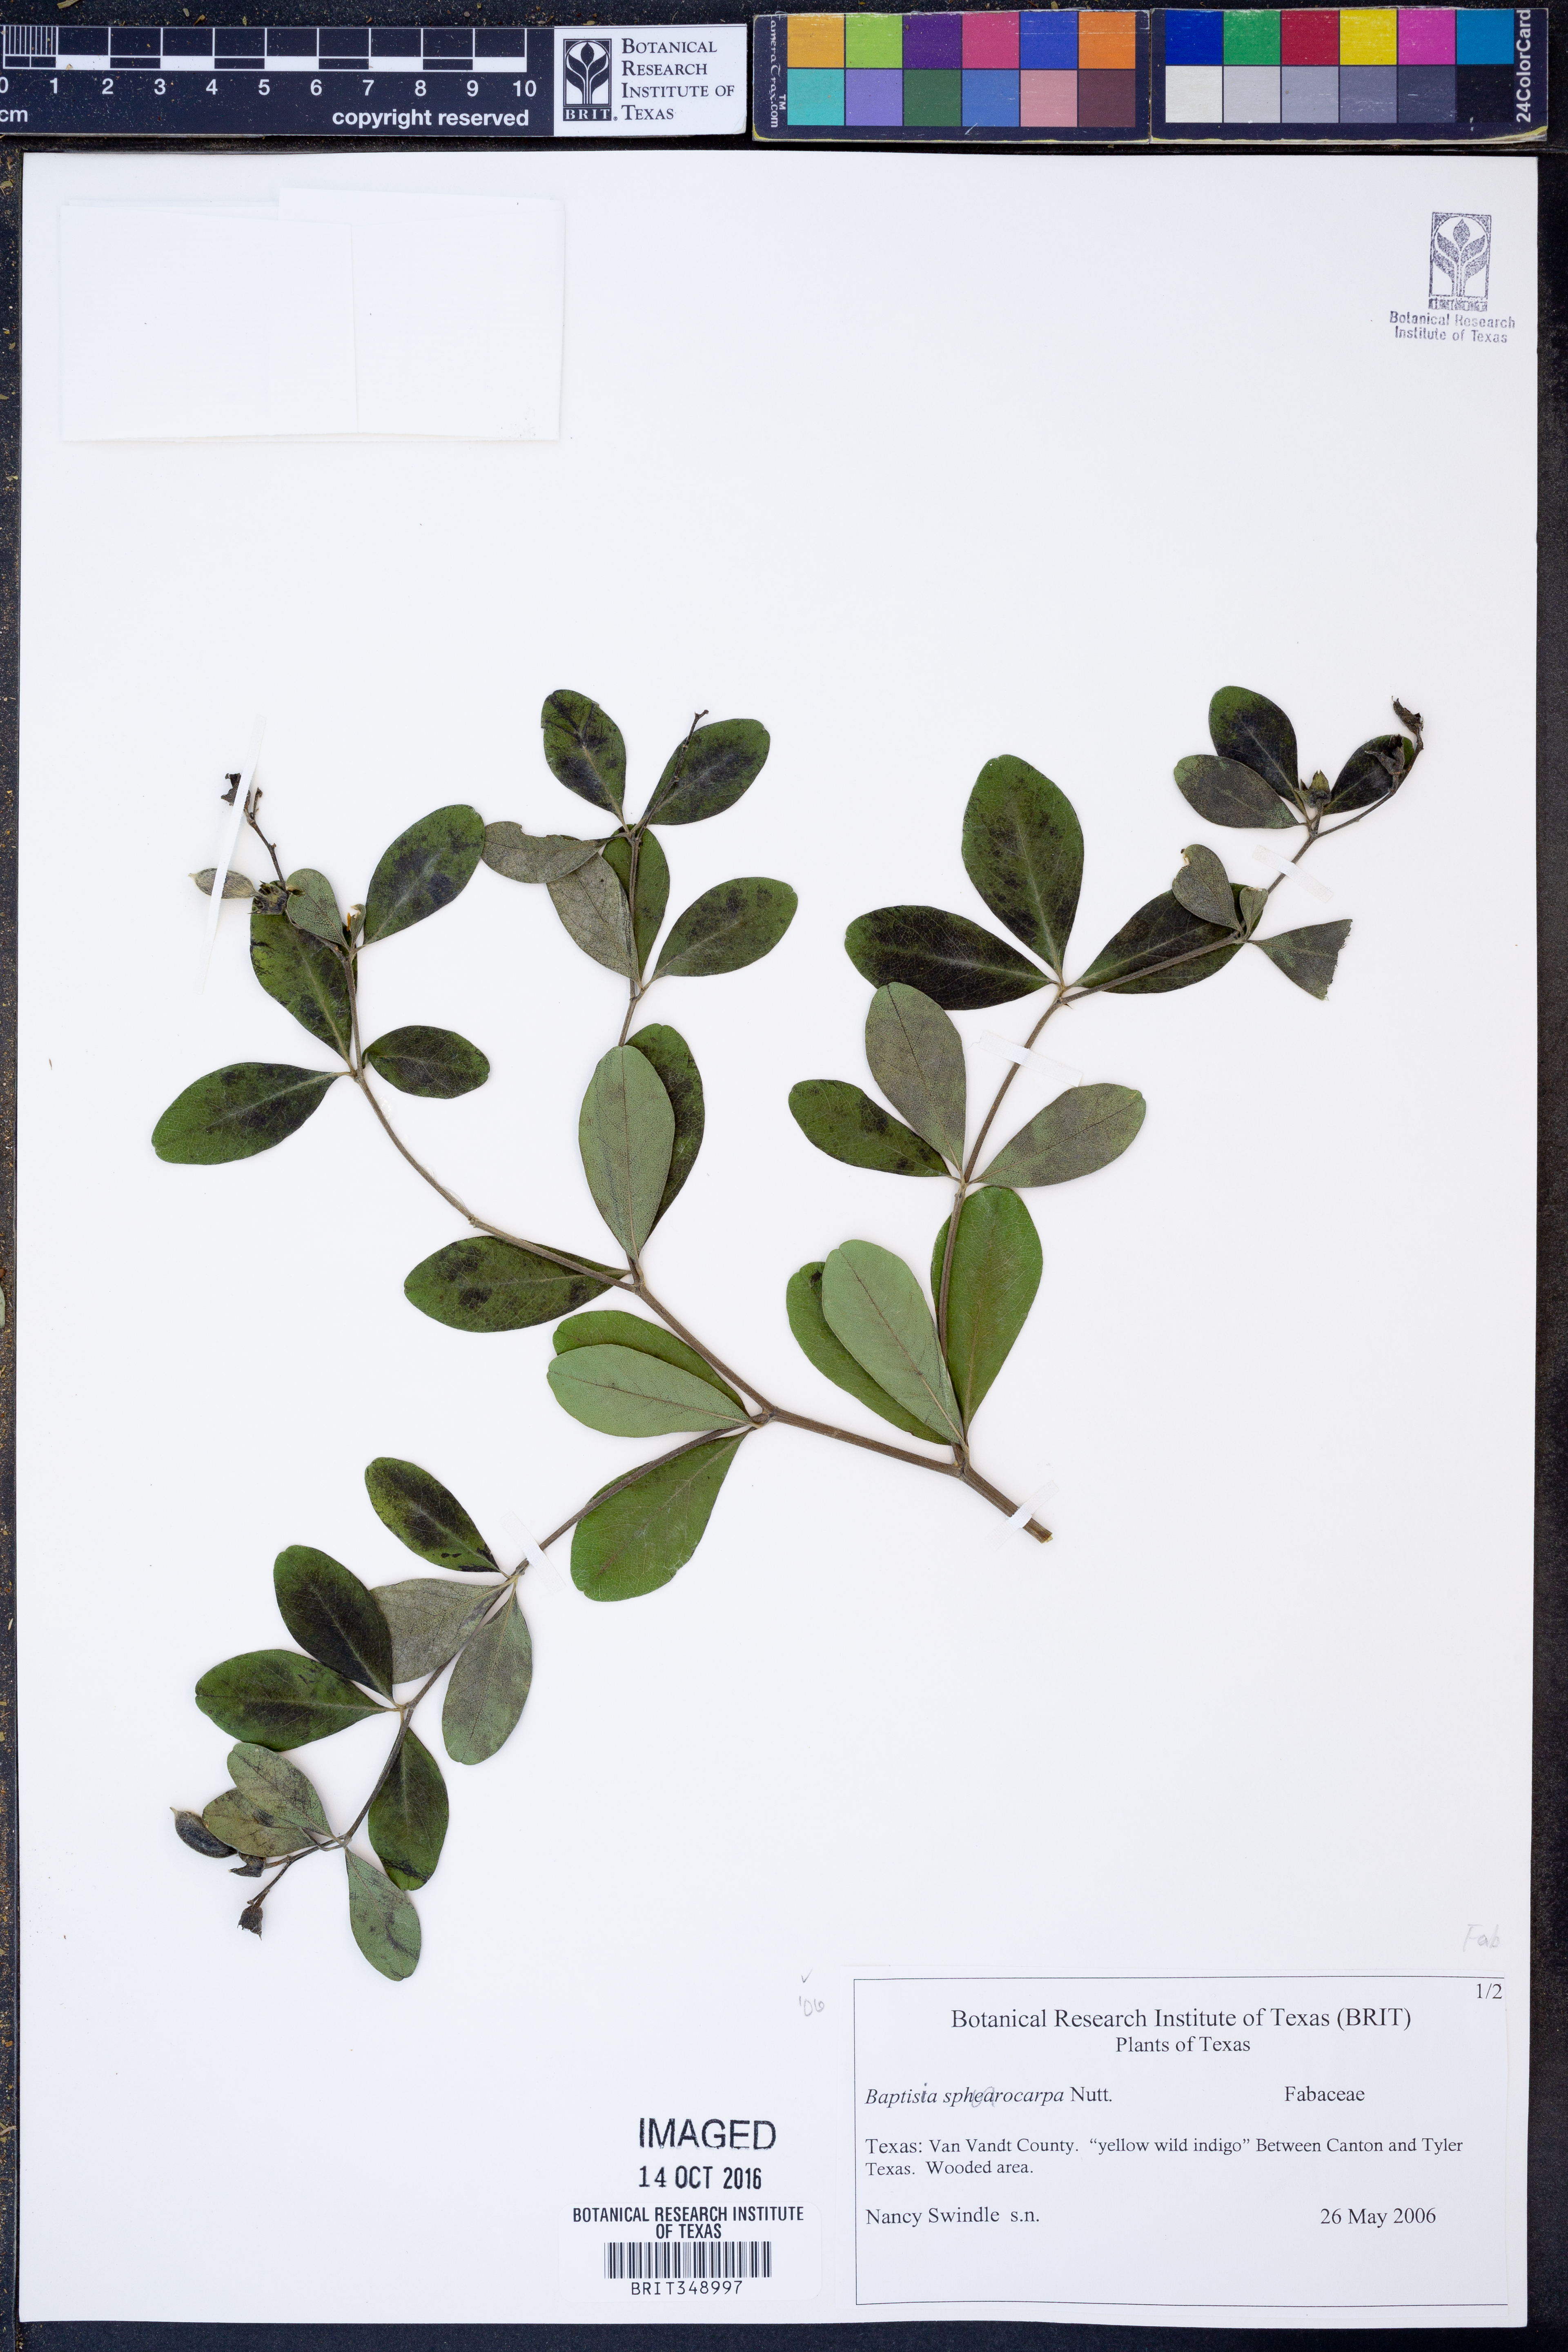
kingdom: Plantae
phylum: Tracheophyta
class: Magnoliopsida
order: Fabales
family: Fabaceae
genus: Baptisia
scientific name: Baptisia sphaerocarpa
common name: Round wild indigo
